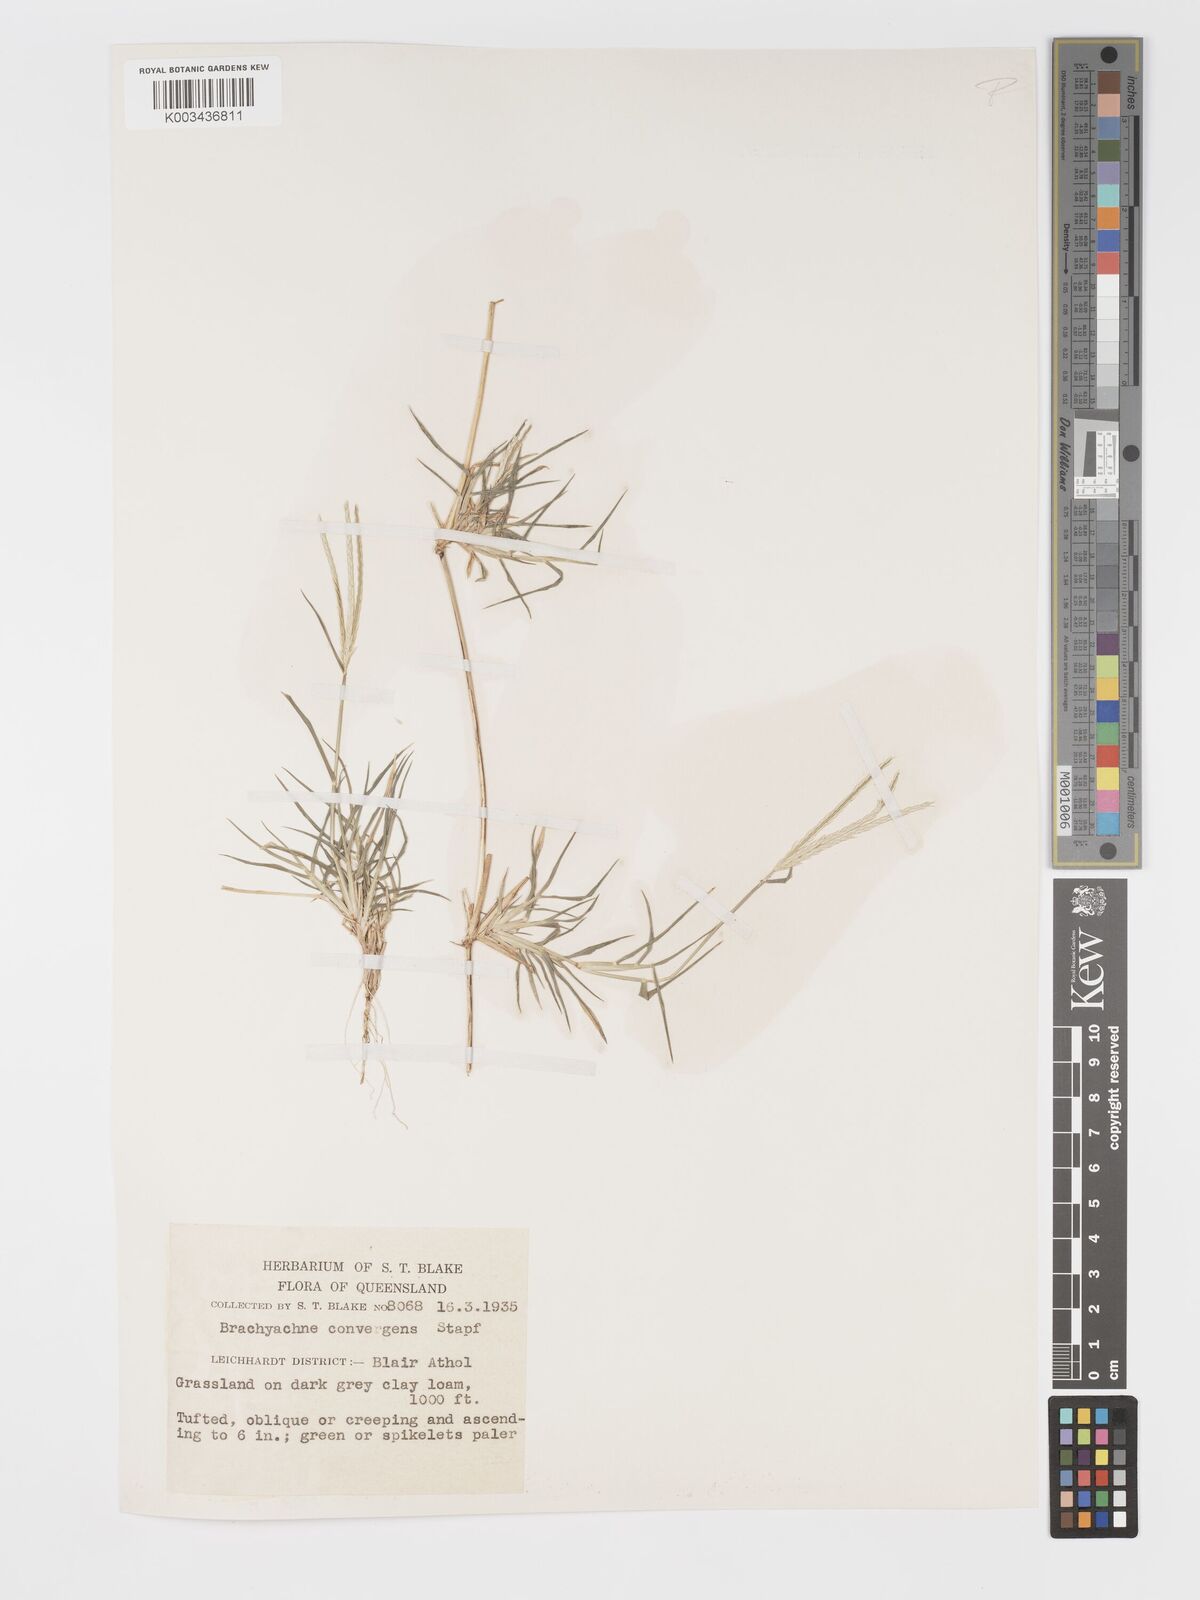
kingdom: Plantae
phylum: Tracheophyta
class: Liliopsida
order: Poales
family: Poaceae
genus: Cynodon
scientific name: Cynodon convergens
